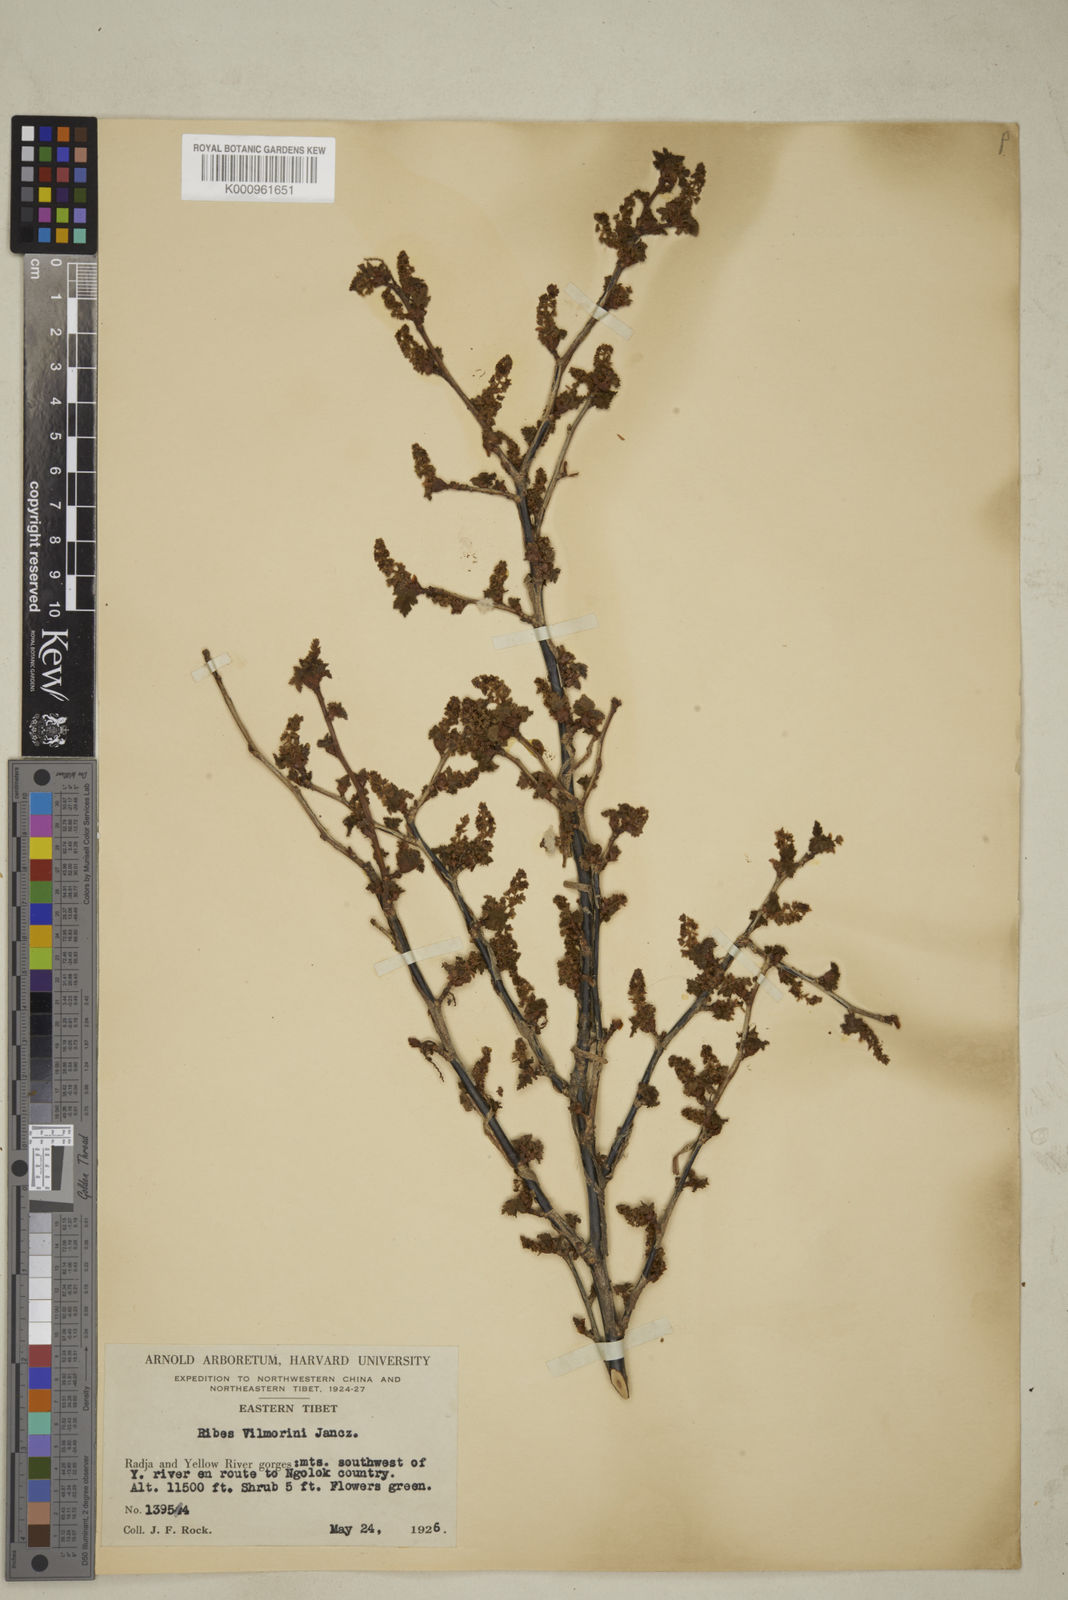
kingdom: Plantae
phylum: Tracheophyta
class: Magnoliopsida
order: Saxifragales
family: Grossulariaceae
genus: Ribes
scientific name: Ribes vilmorinii
